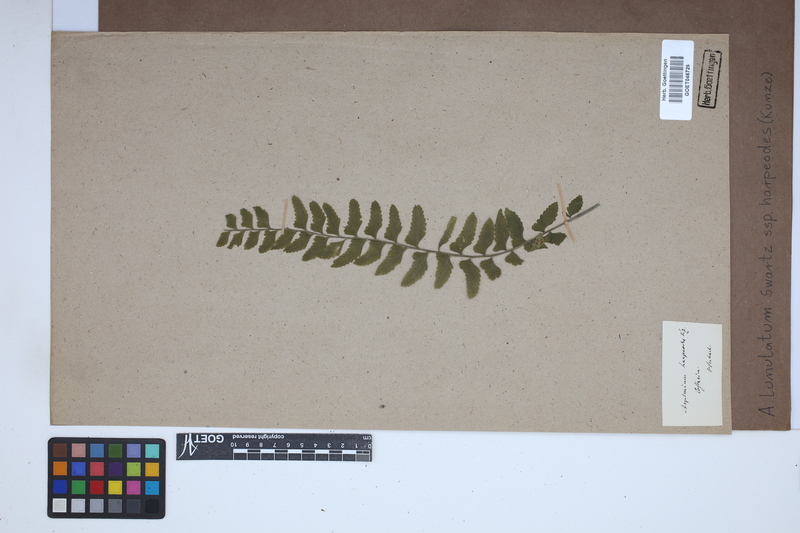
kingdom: Plantae
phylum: Tracheophyta
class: Polypodiopsida
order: Polypodiales
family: Aspleniaceae
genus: Asplenium
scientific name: Asplenium harpeodes
